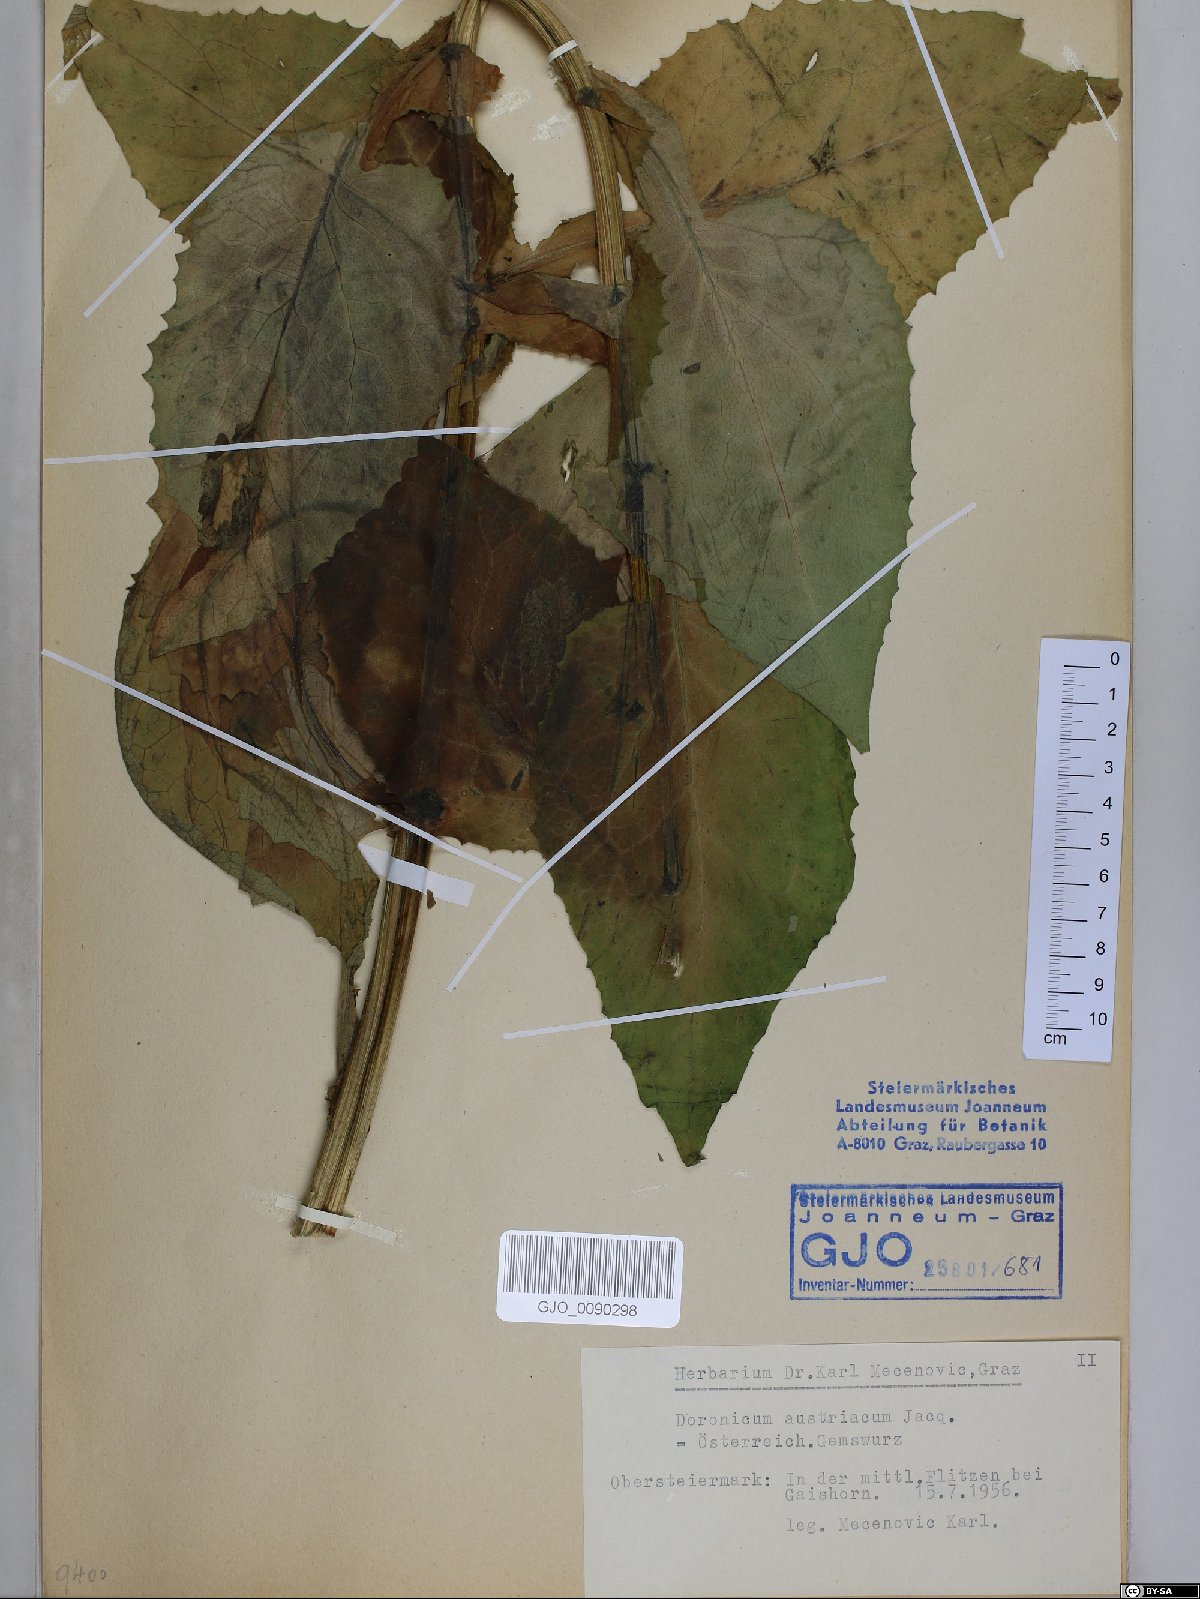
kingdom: Plantae
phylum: Tracheophyta
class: Magnoliopsida
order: Asterales
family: Asteraceae
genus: Doronicum
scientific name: Doronicum austriacum
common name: Austrian leopard's-bane
